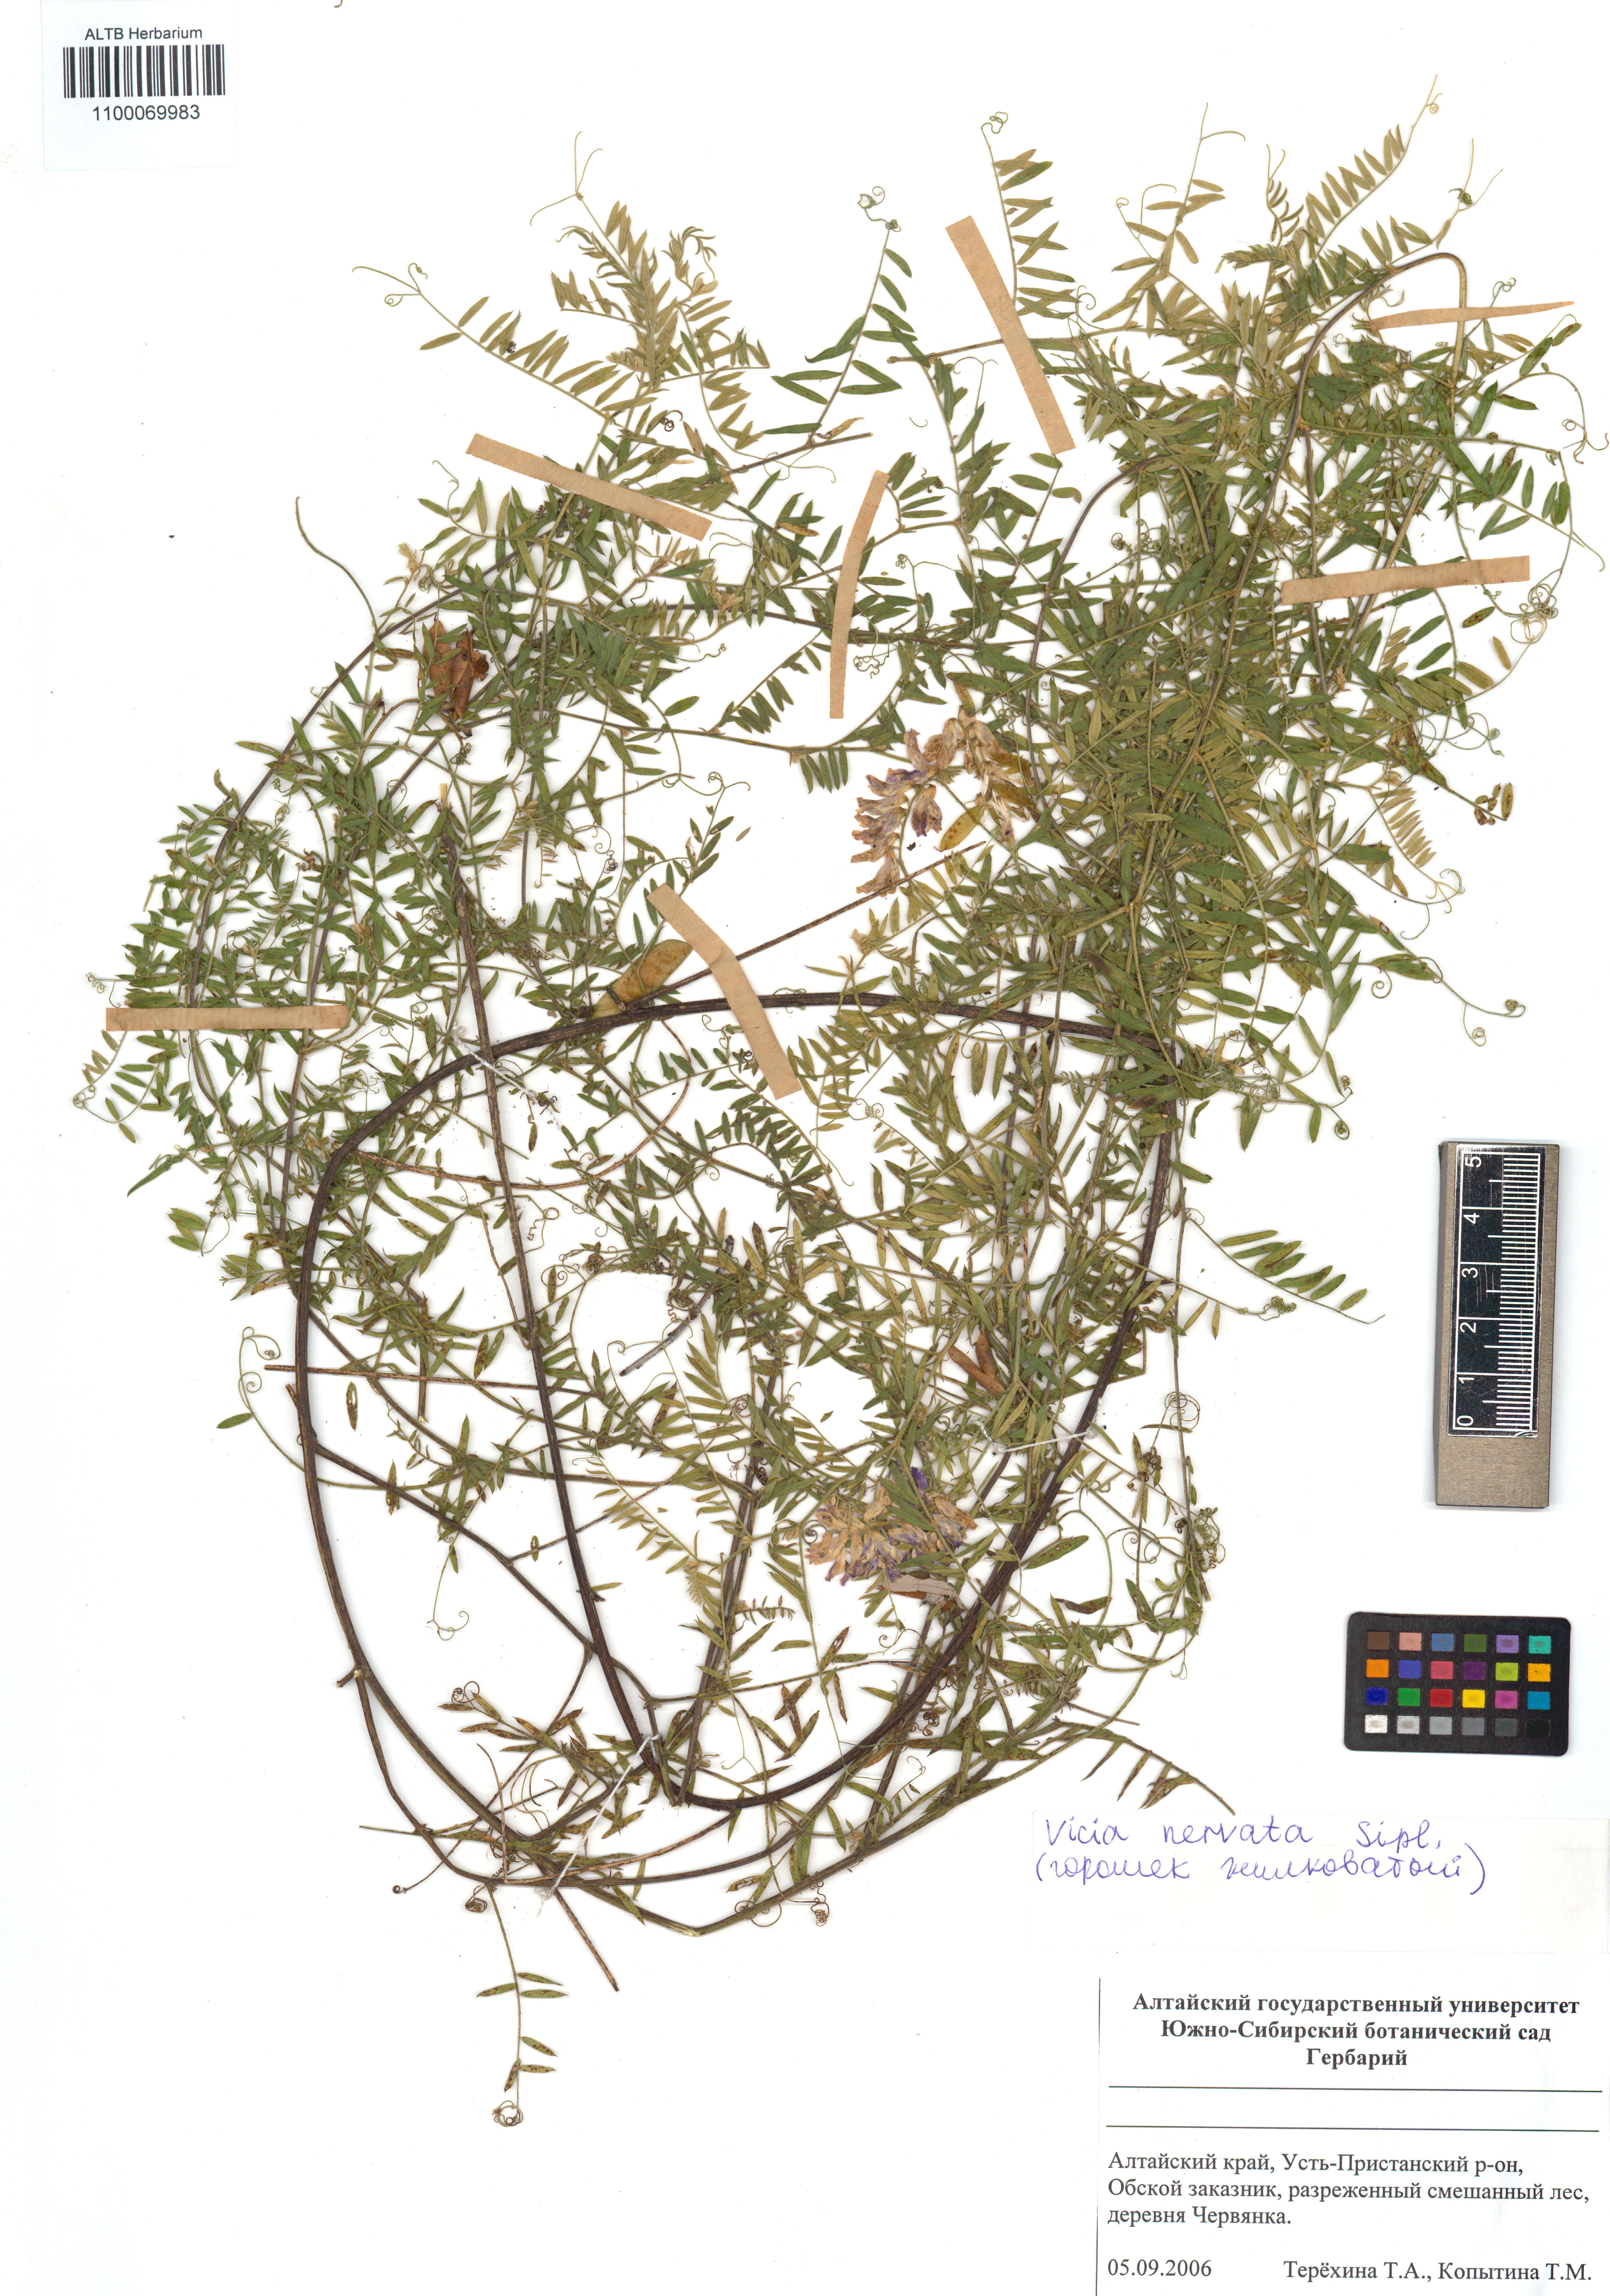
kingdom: Plantae
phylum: Tracheophyta
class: Magnoliopsida
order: Fabales
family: Fabaceae
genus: Vicia
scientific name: Vicia multicaulis
